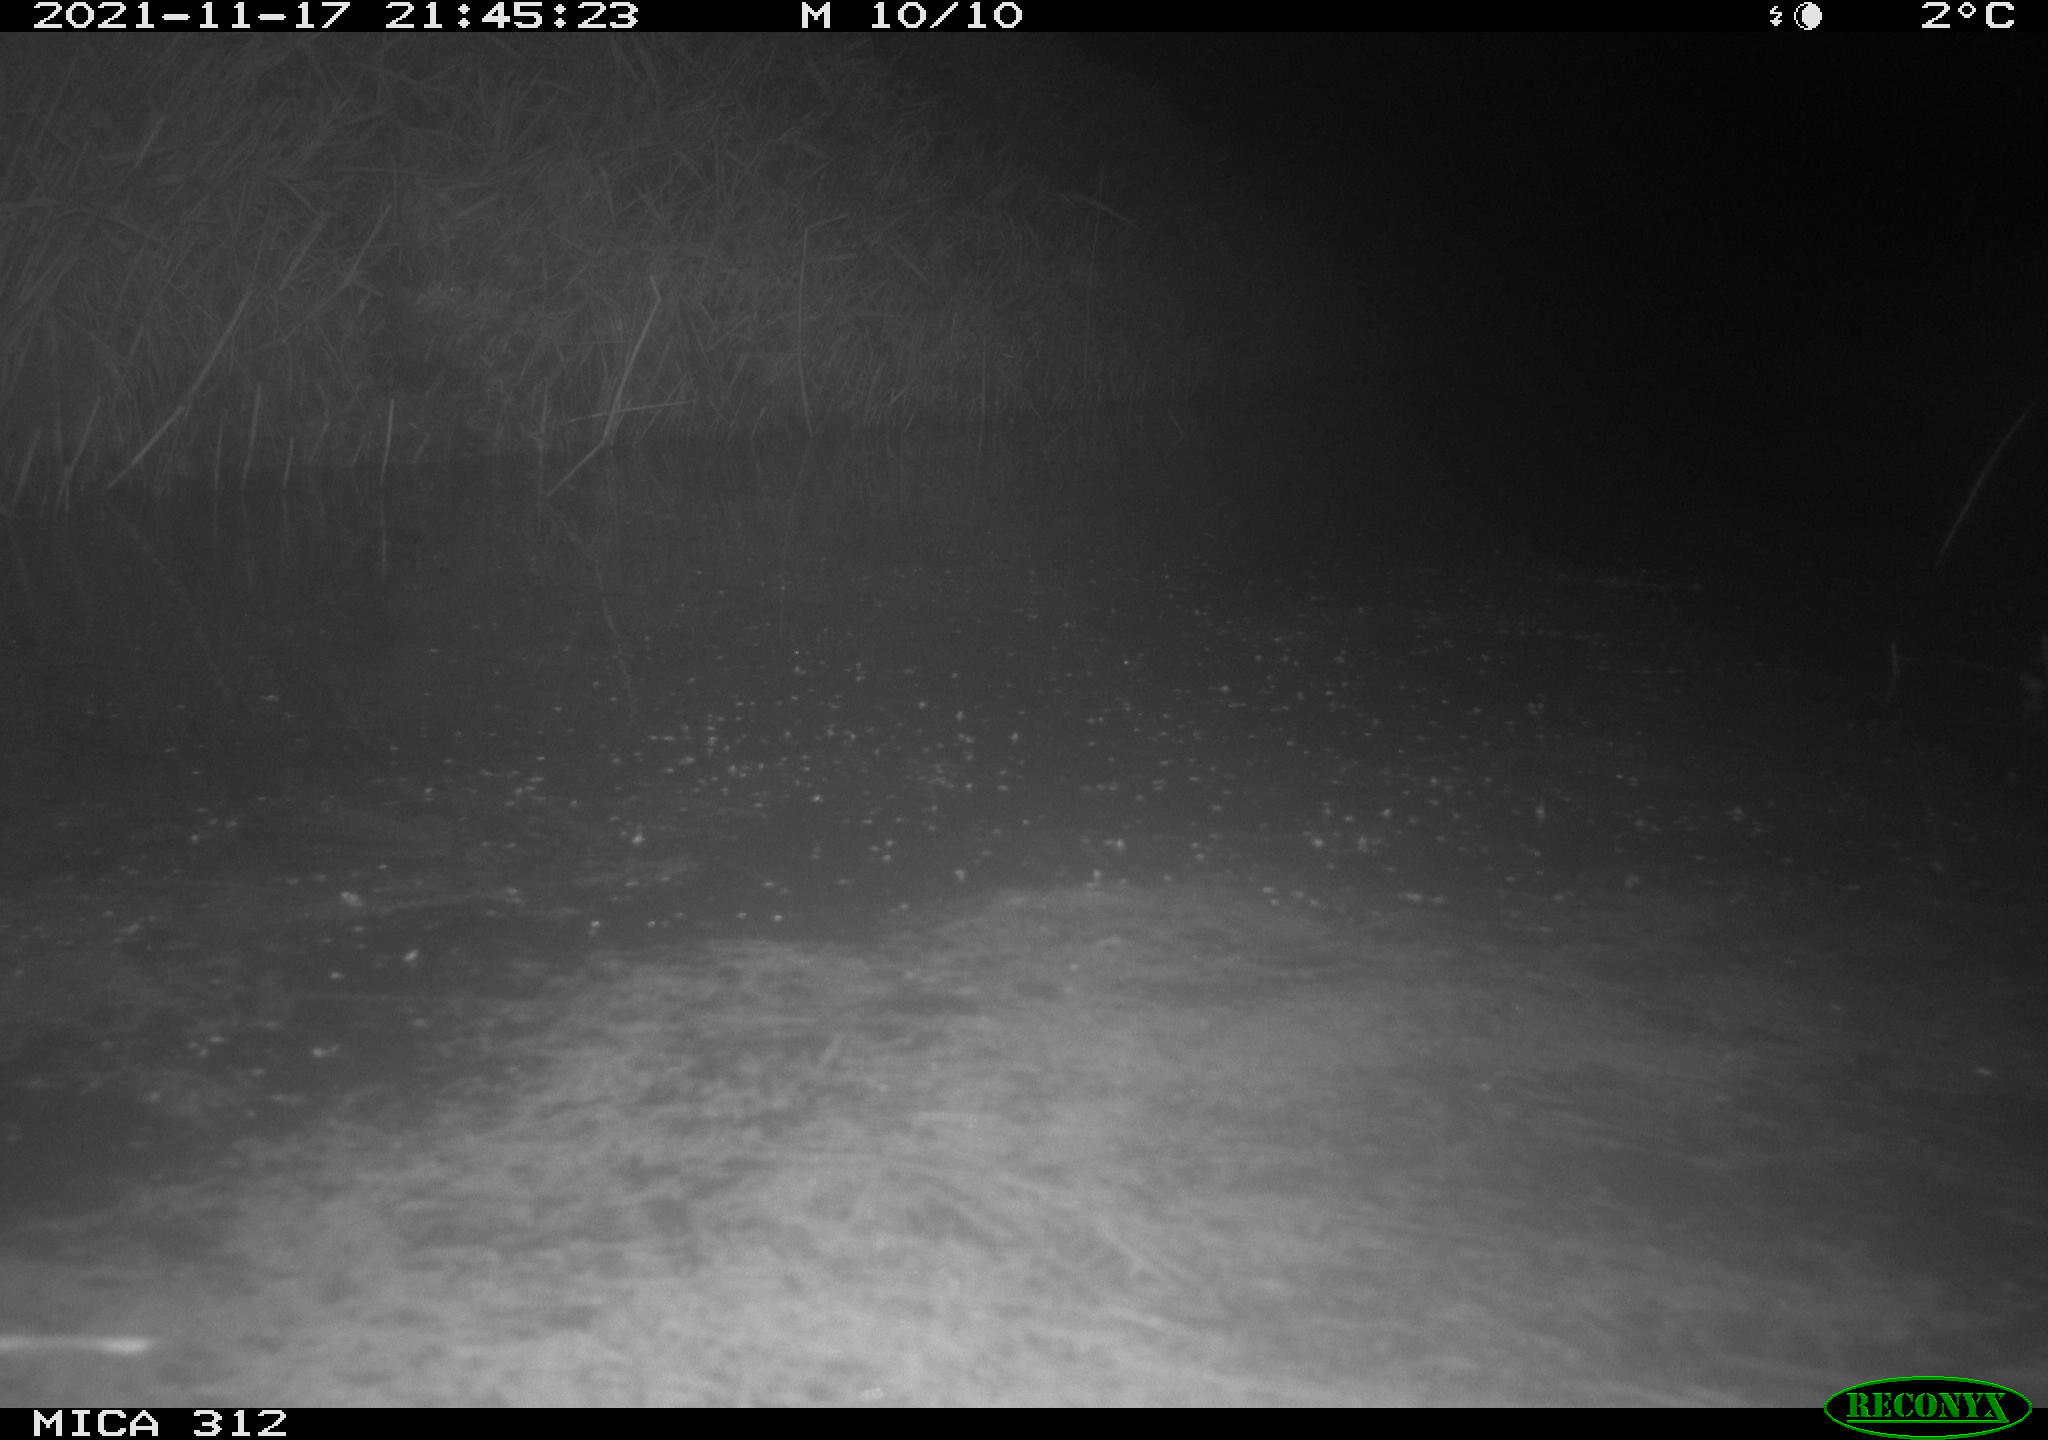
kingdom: Animalia
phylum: Chordata
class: Mammalia
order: Rodentia
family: Muridae
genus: Rattus
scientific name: Rattus norvegicus
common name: Brown rat
